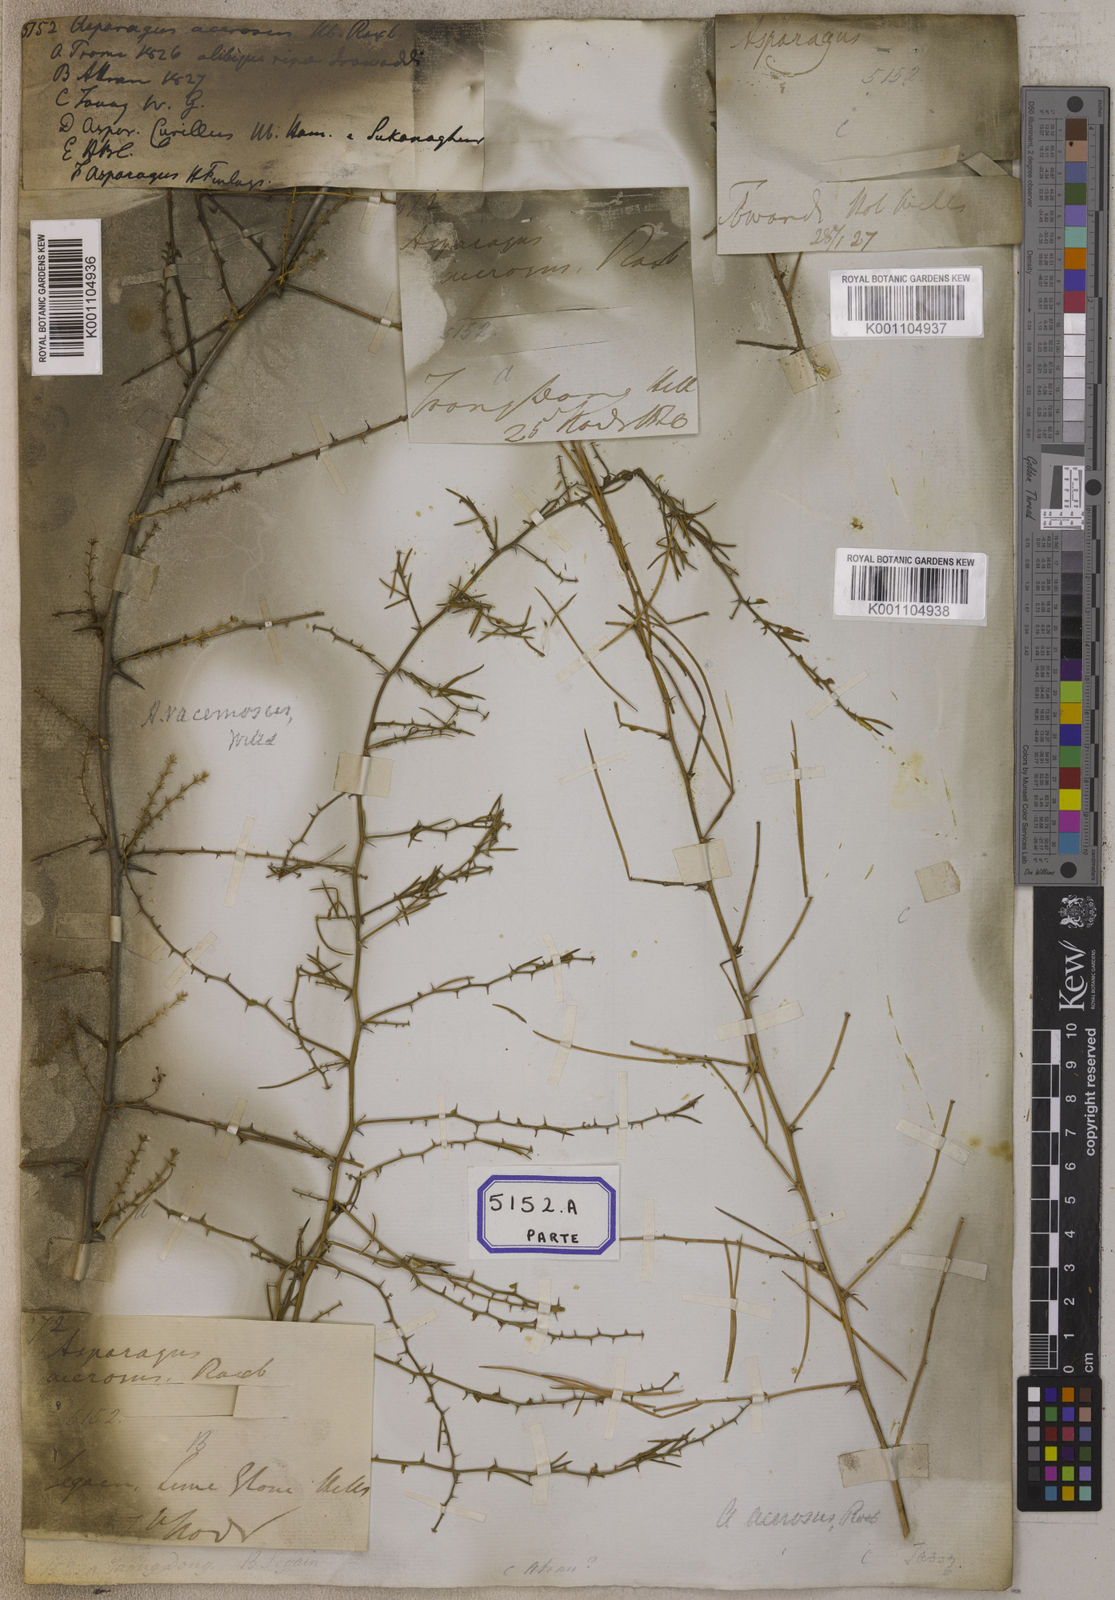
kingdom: Plantae
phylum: Tracheophyta
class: Liliopsida
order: Asparagales
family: Asparagaceae
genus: Asparagus
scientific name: Asparagus racemosus
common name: Asparagus-fern
